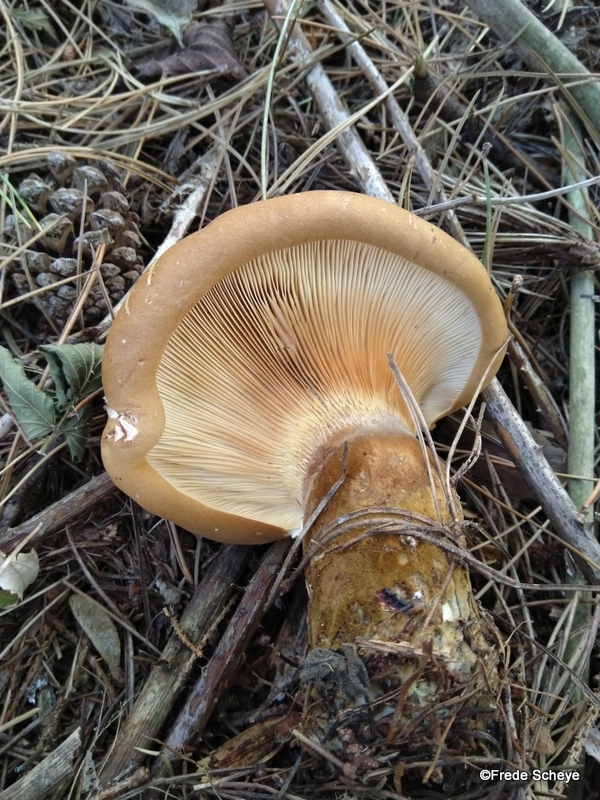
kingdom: Fungi
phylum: Basidiomycota
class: Agaricomycetes
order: Boletales
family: Tapinellaceae
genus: Tapinella
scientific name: Tapinella atrotomentosa
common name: sortfiltet viftesvamp
